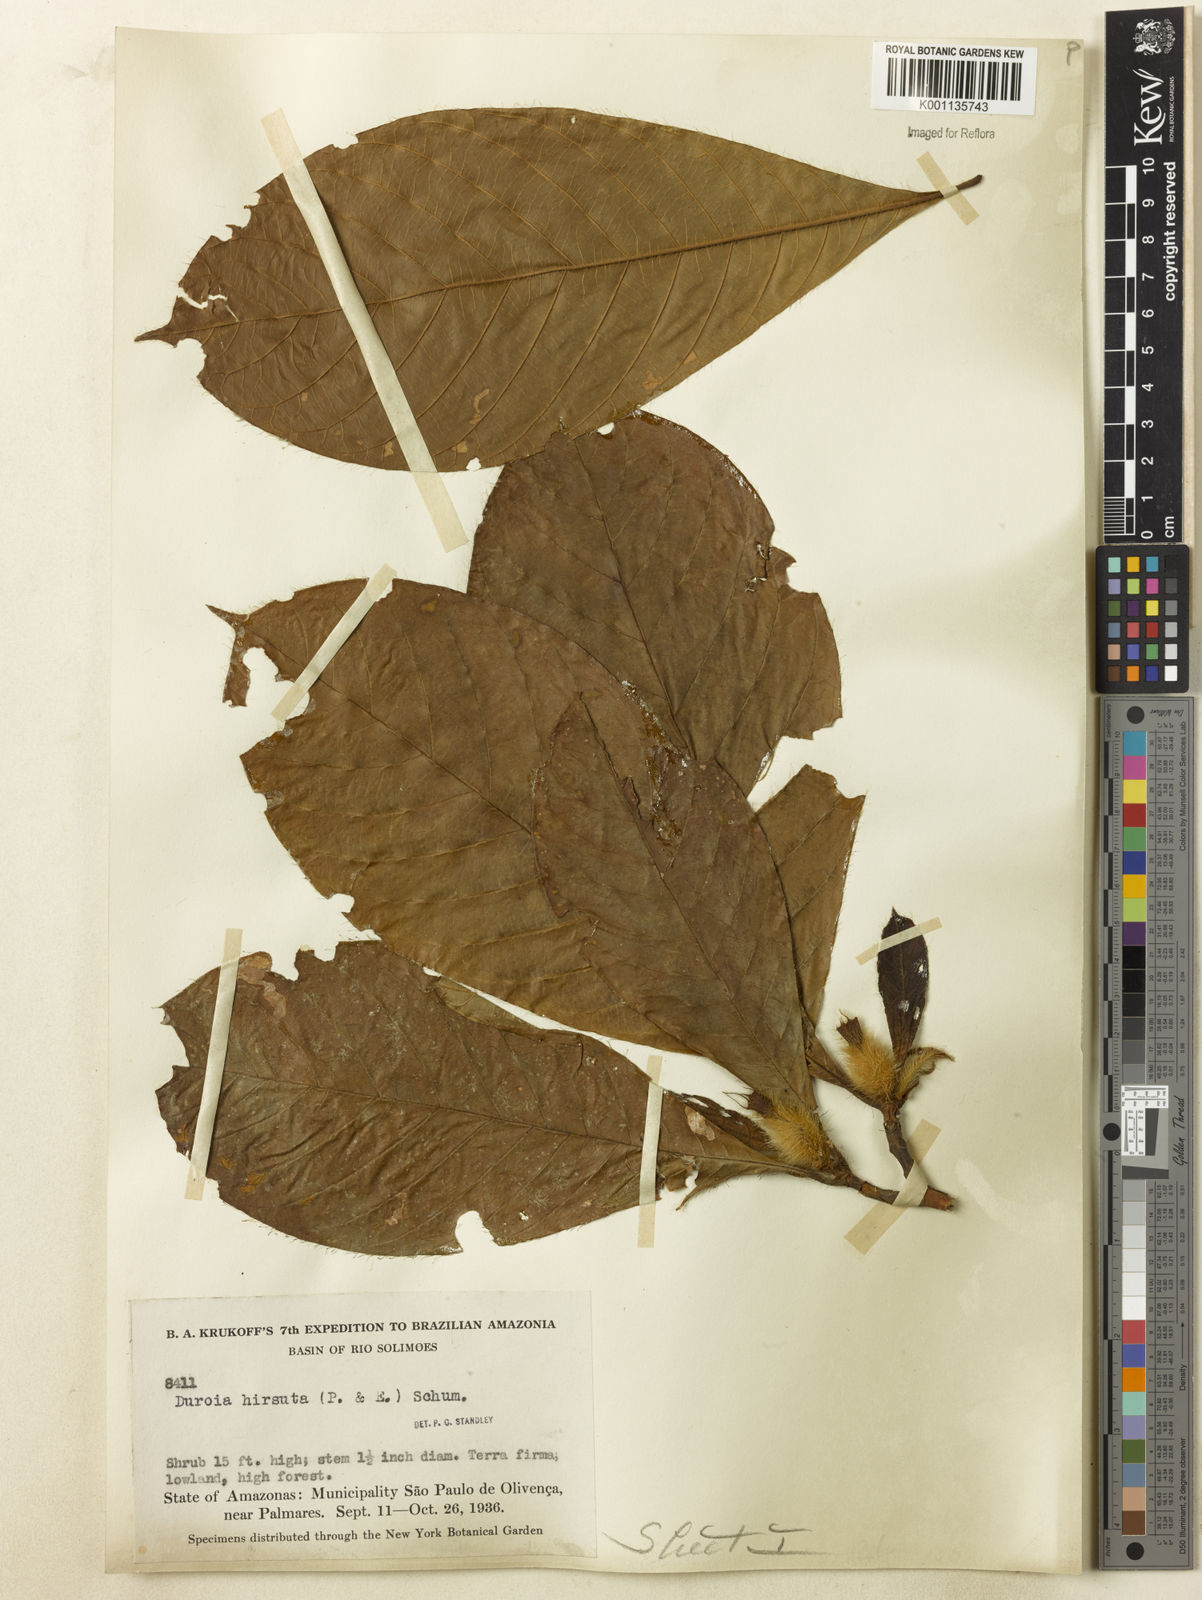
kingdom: Plantae
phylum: Tracheophyta
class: Magnoliopsida
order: Gentianales
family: Rubiaceae
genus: Duroia
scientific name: Duroia hirsuta
